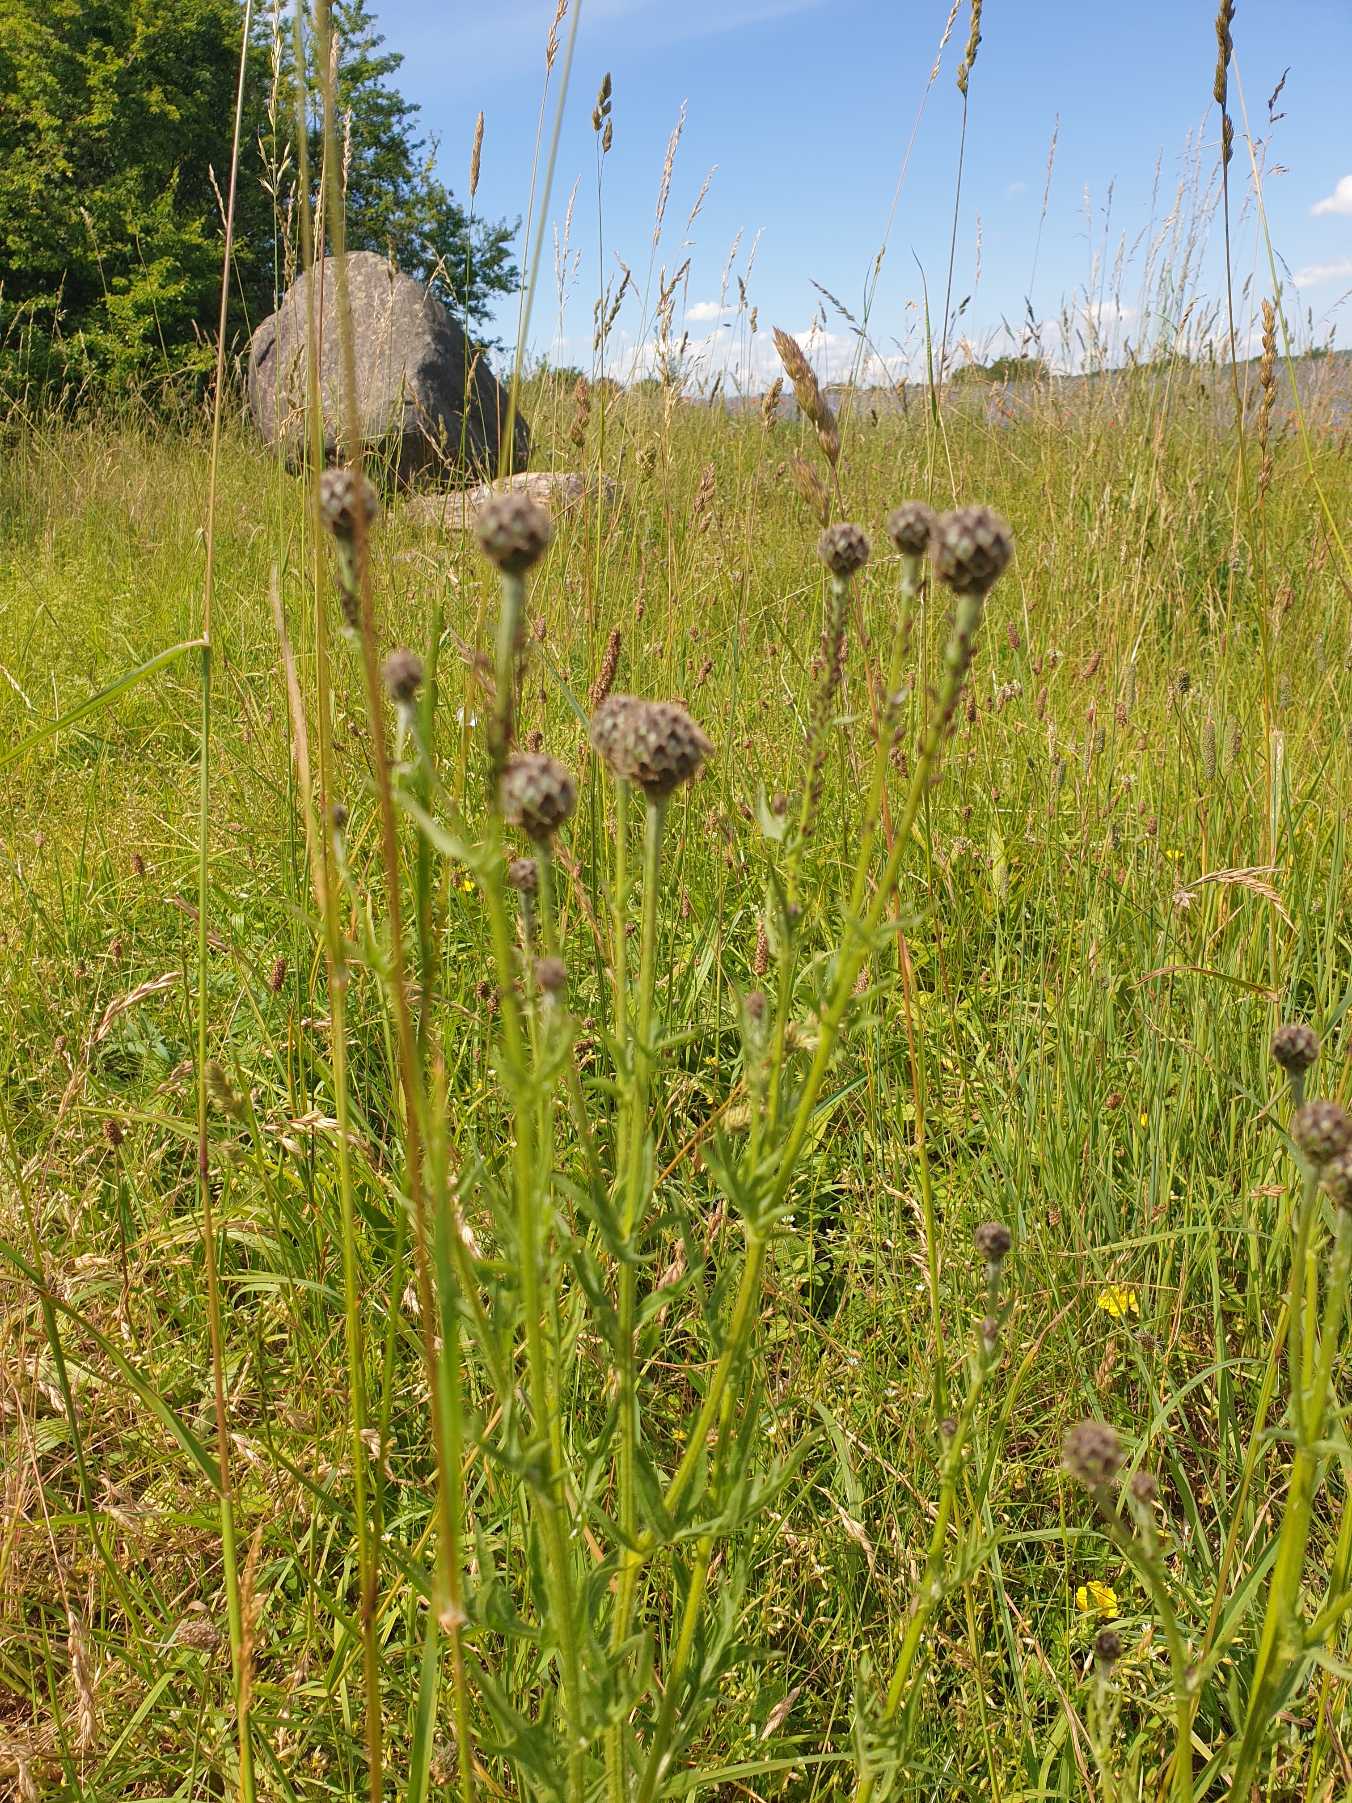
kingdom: Plantae
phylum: Tracheophyta
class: Magnoliopsida
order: Asterales
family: Asteraceae
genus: Centaurea
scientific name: Centaurea scabiosa
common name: Stor knopurt
